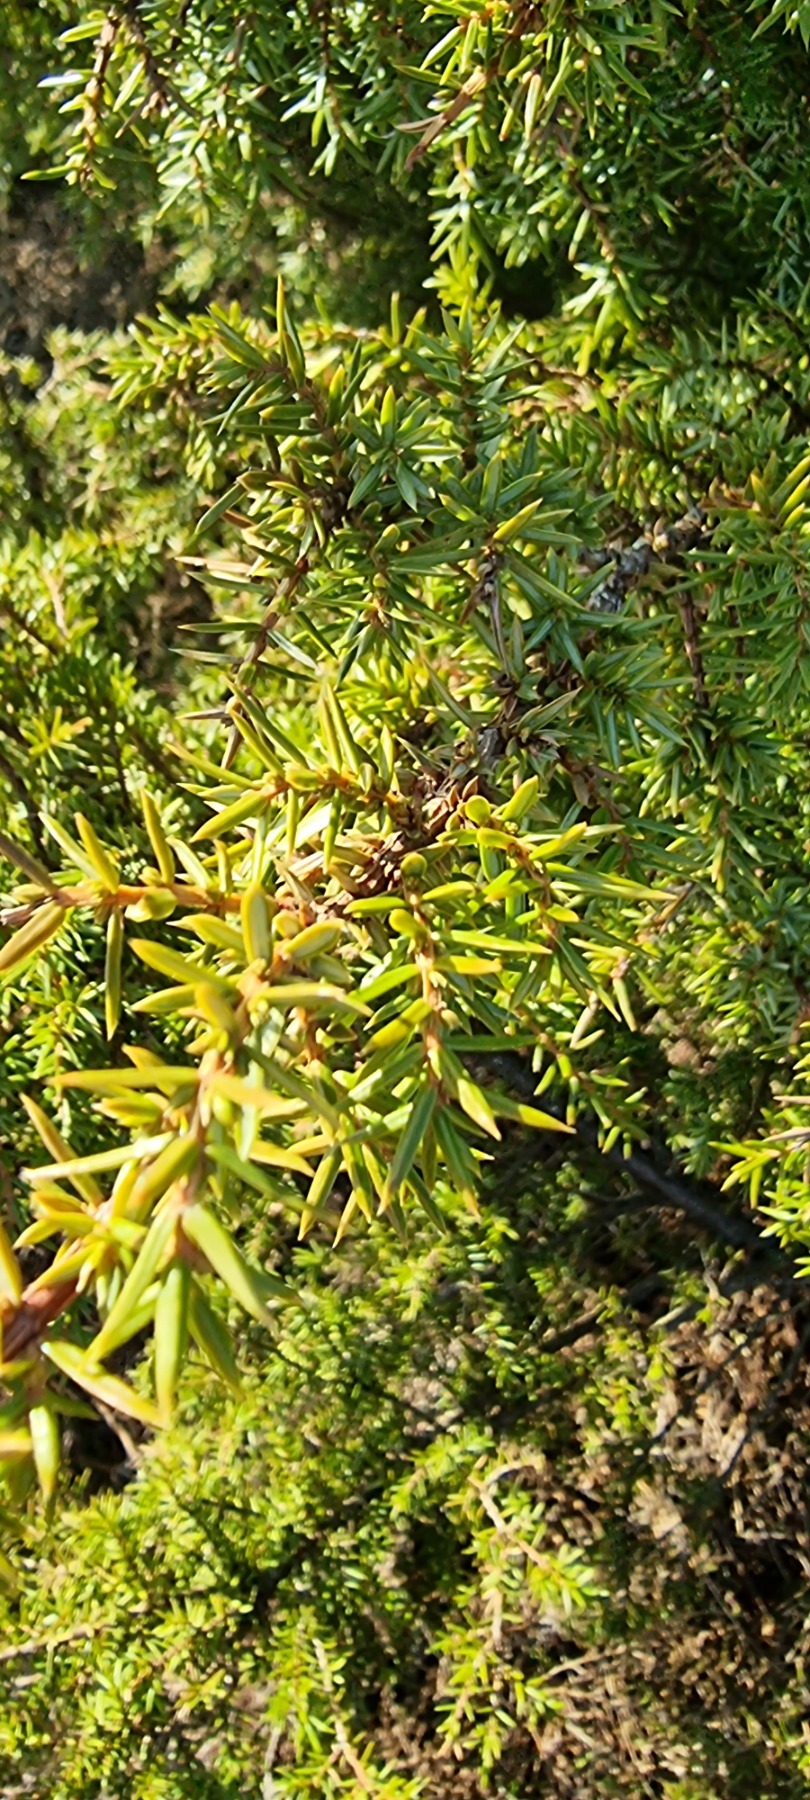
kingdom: Plantae
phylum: Tracheophyta
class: Pinopsida
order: Pinales
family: Cupressaceae
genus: Juniperus
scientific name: Juniperus communis
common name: Almindelig ene
